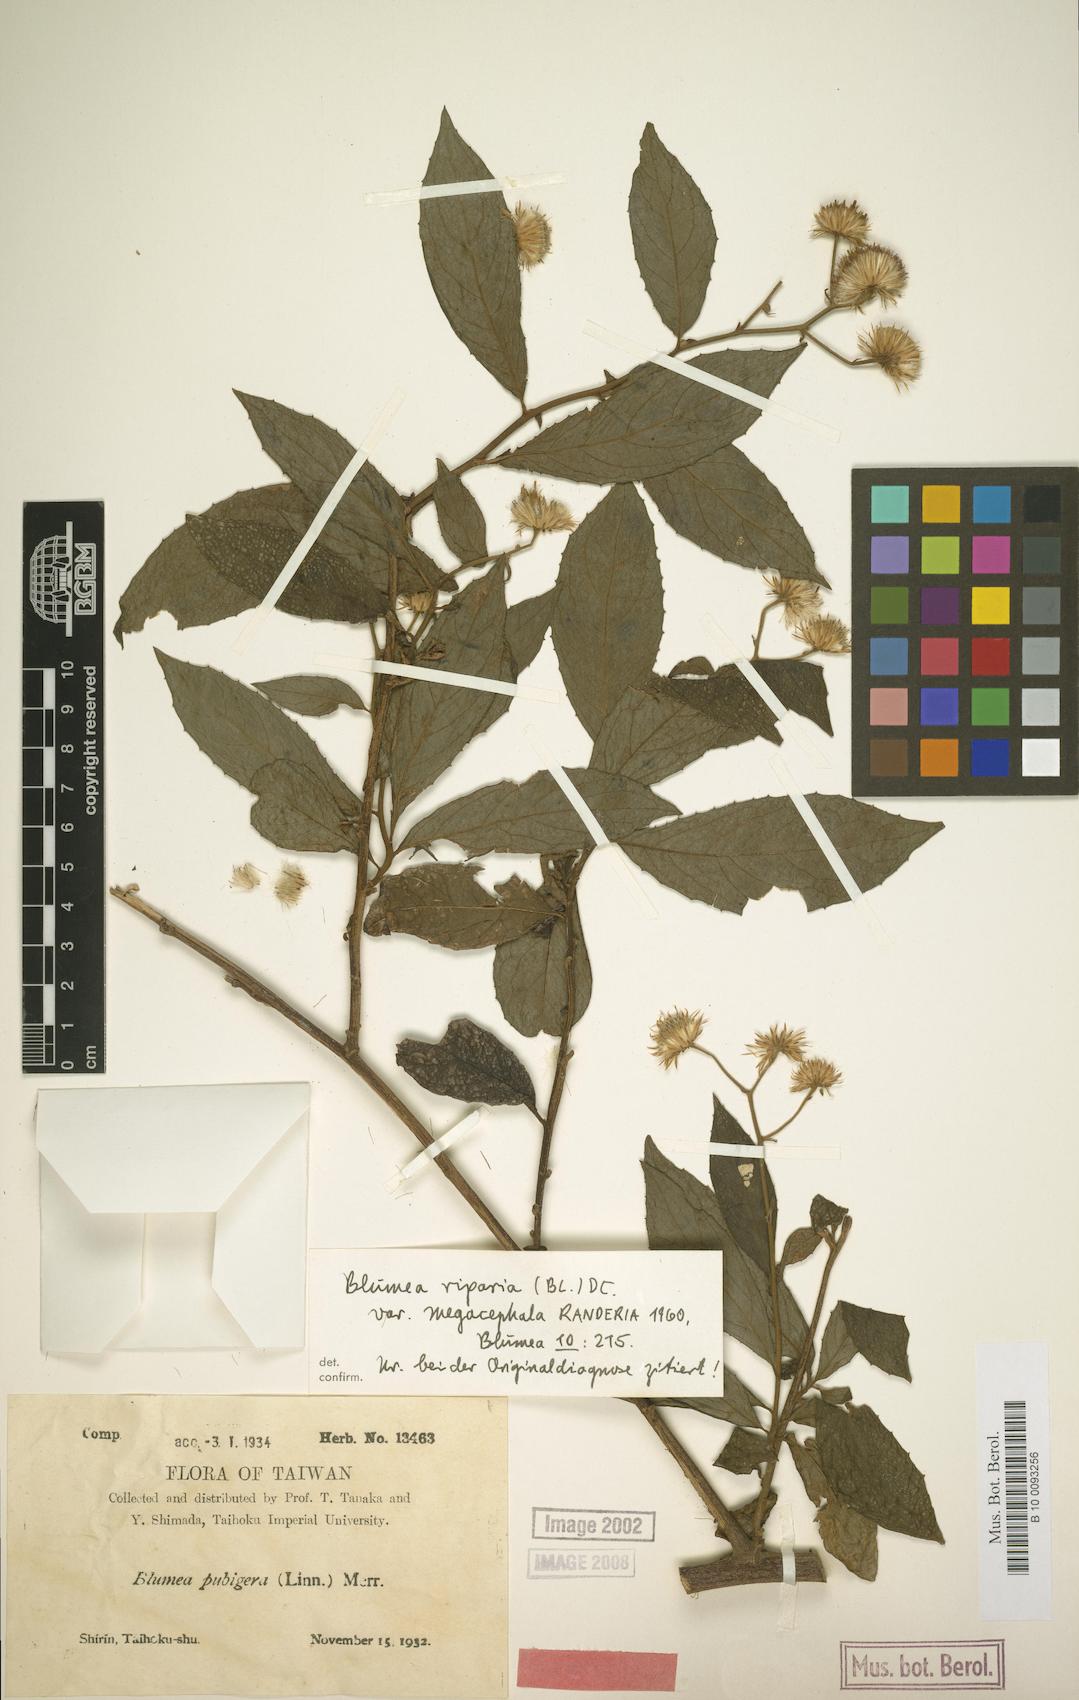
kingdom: Plantae
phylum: Tracheophyta
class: Magnoliopsida
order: Asterales
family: Asteraceae
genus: Blumea
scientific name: Blumea megacephala
